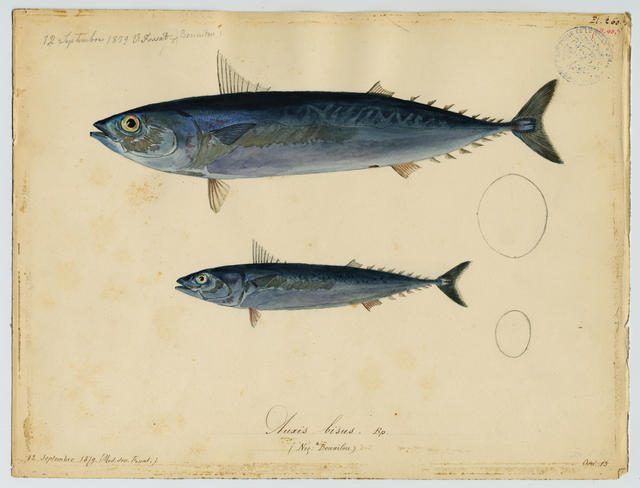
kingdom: Animalia
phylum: Chordata
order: Perciformes
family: Scombridae
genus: Auxis
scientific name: Auxis rochei
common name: Bullet tuna
